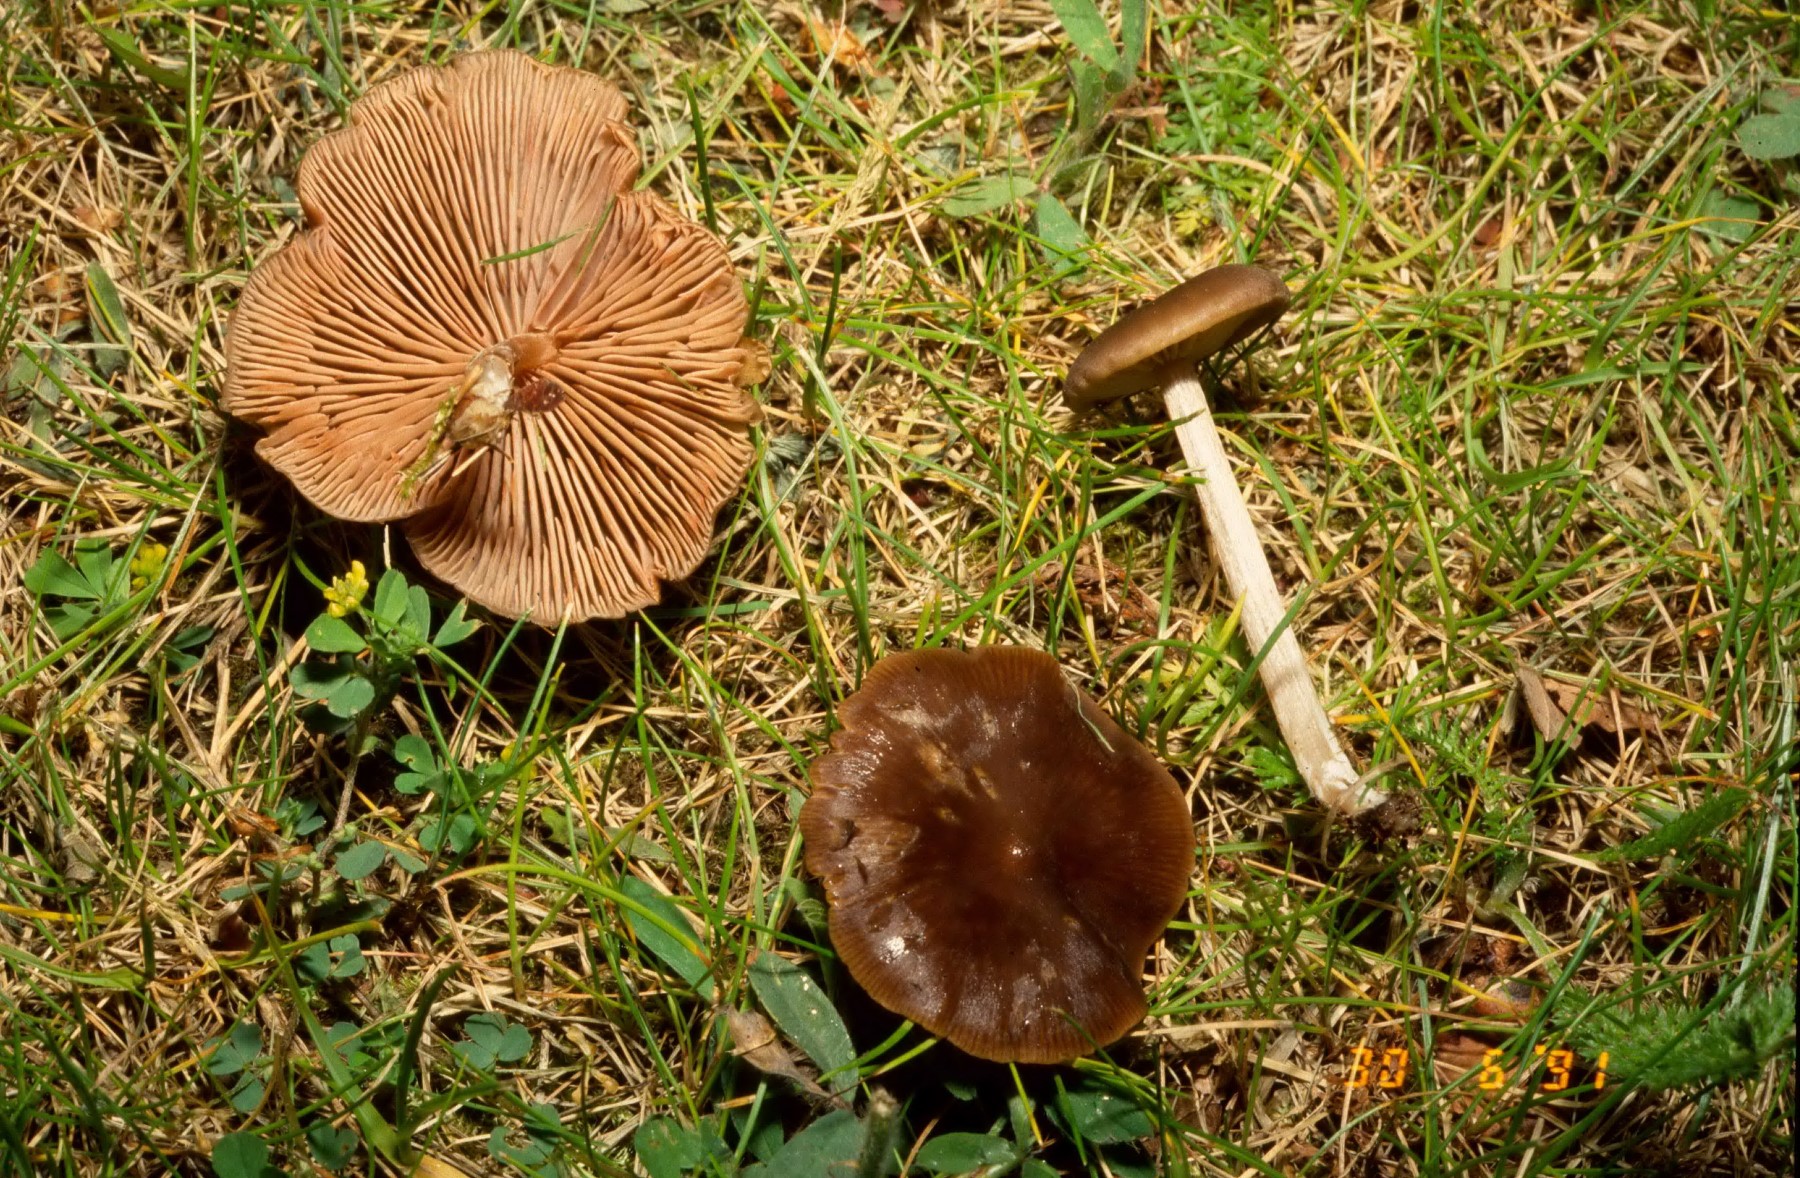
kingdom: Fungi
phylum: Basidiomycota
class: Agaricomycetes
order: Agaricales
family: Entolomataceae
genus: Entoloma
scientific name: Entoloma
